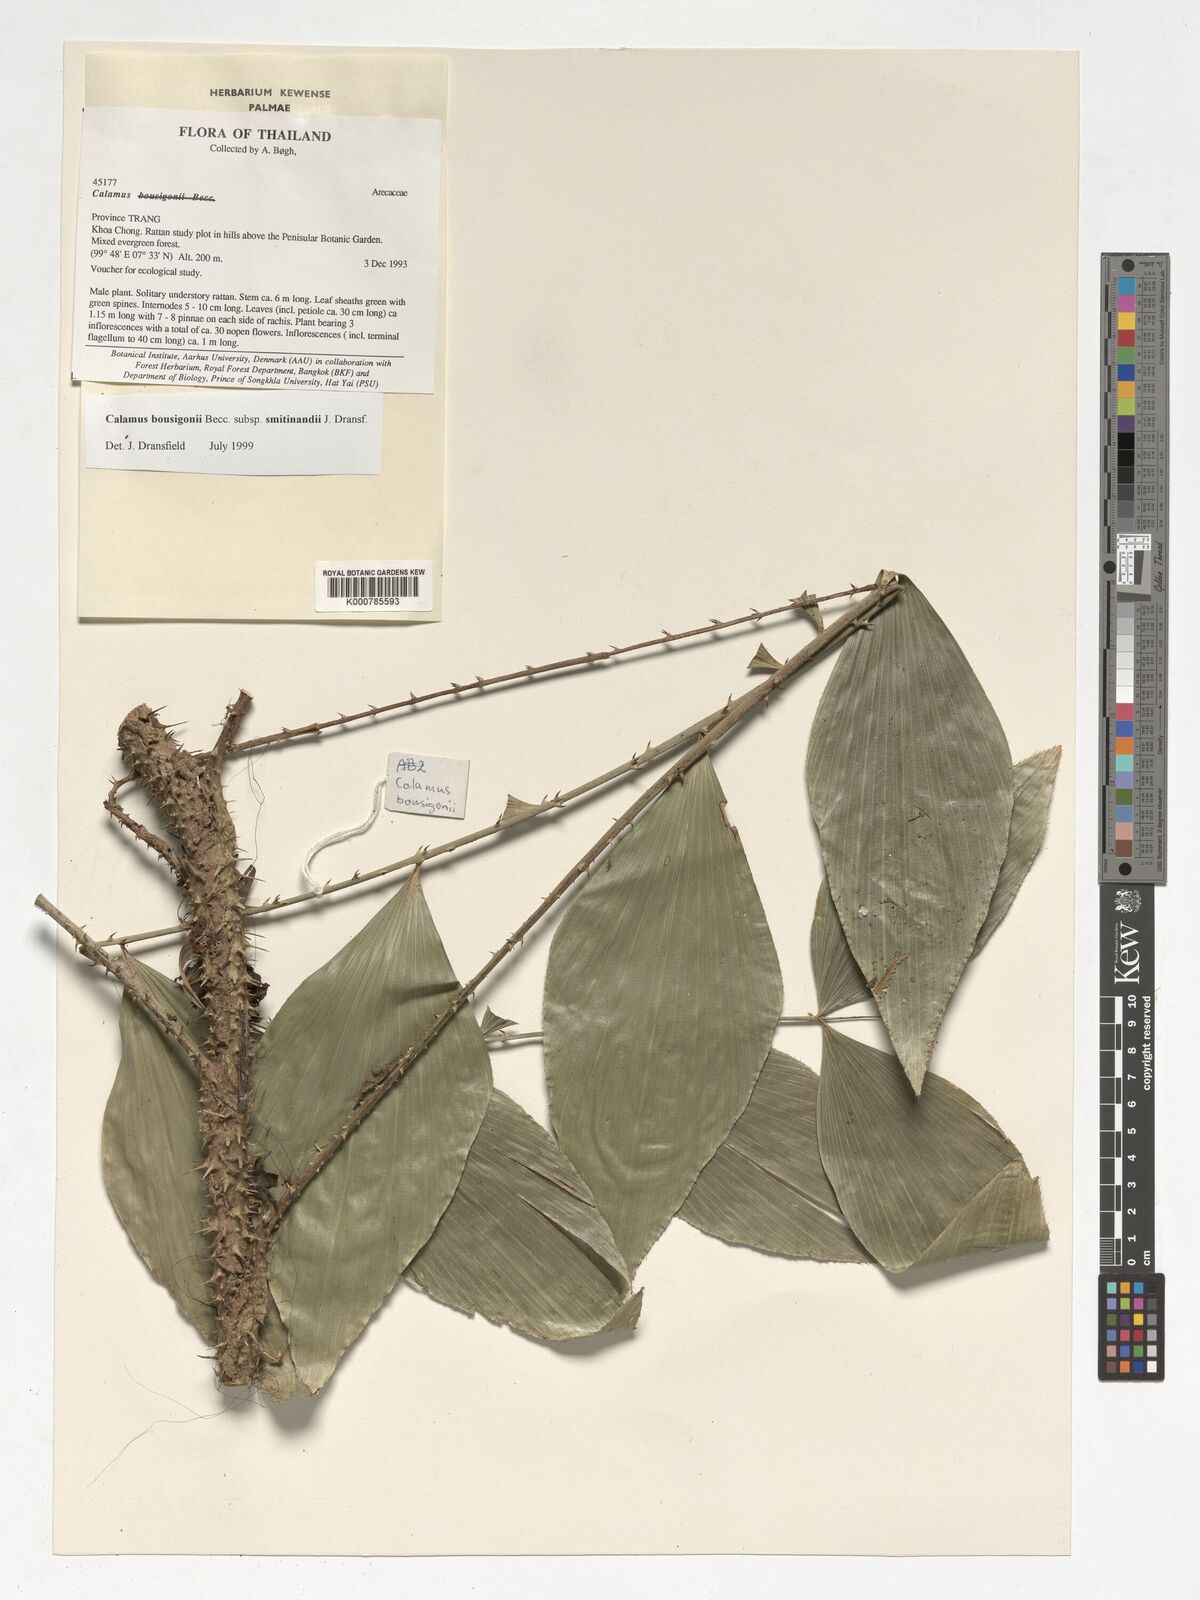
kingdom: Plantae
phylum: Tracheophyta
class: Liliopsida
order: Arecales
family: Arecaceae
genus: Calamus
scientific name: Calamus smitinandii
